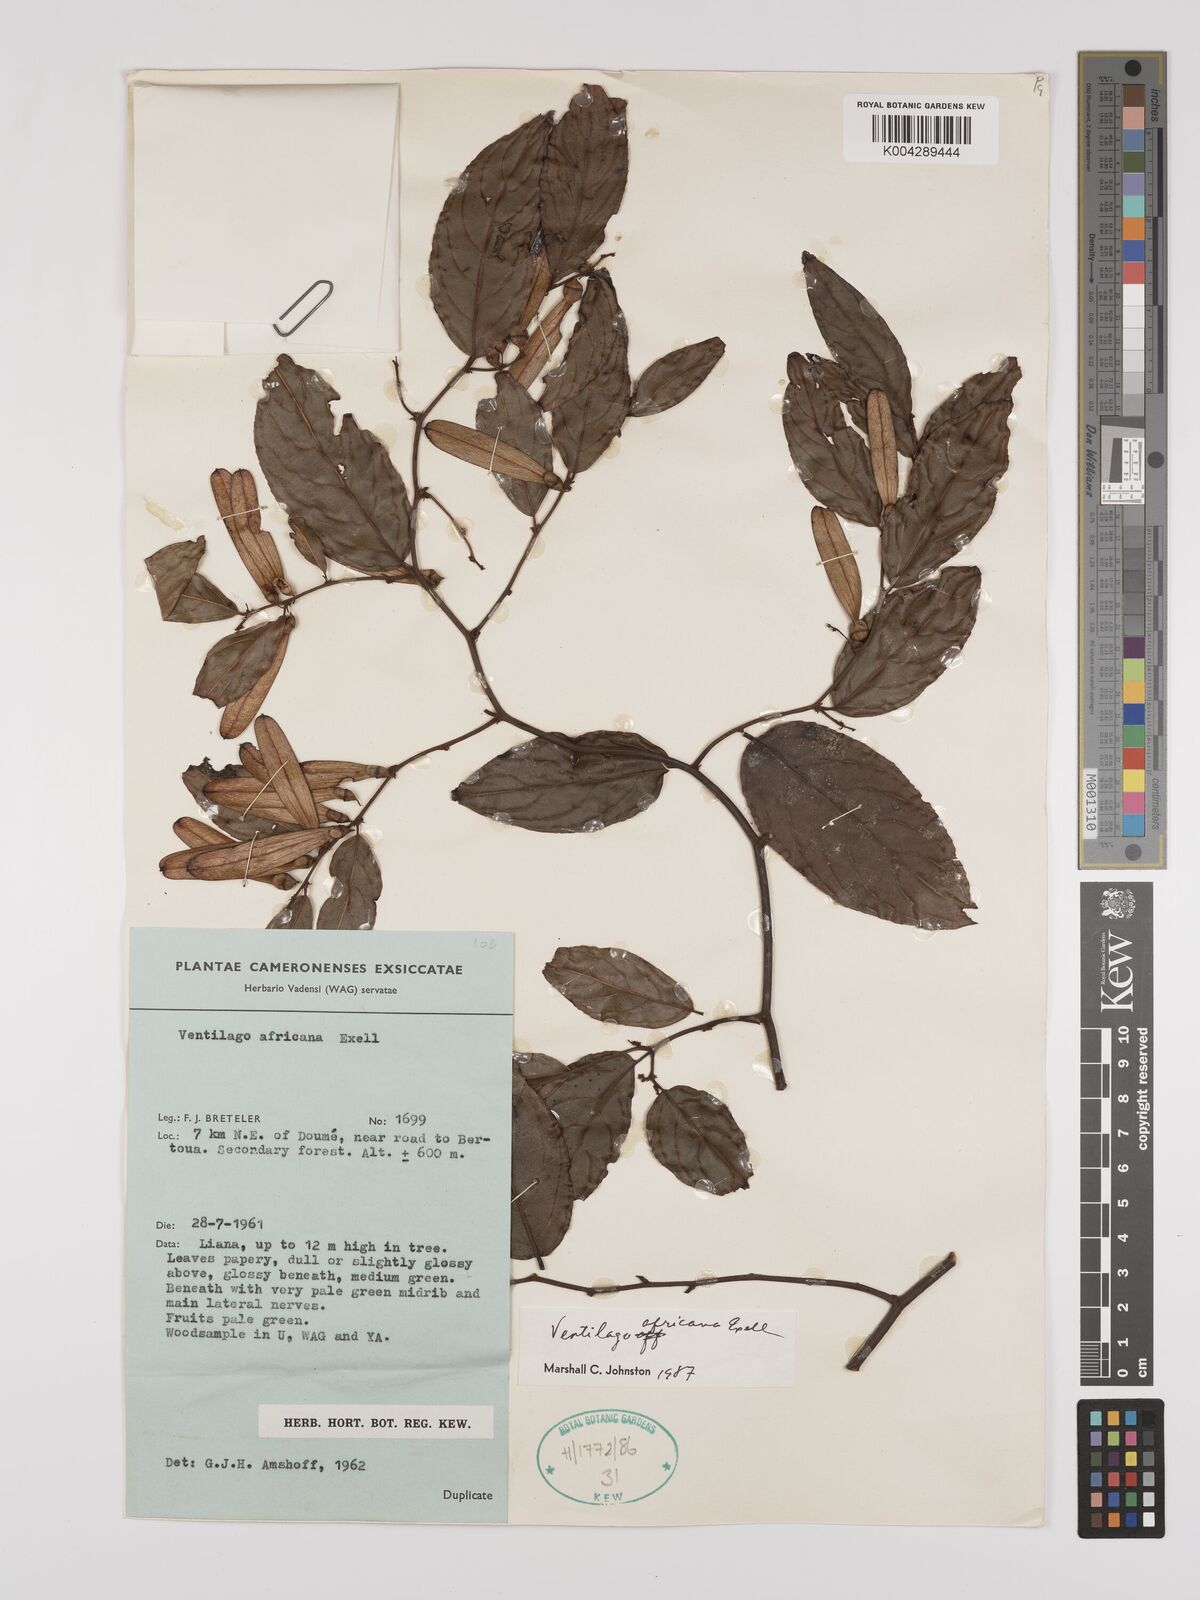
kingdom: Plantae
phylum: Tracheophyta
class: Magnoliopsida
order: Rosales
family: Rhamnaceae
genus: Ventilago
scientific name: Ventilago africana
